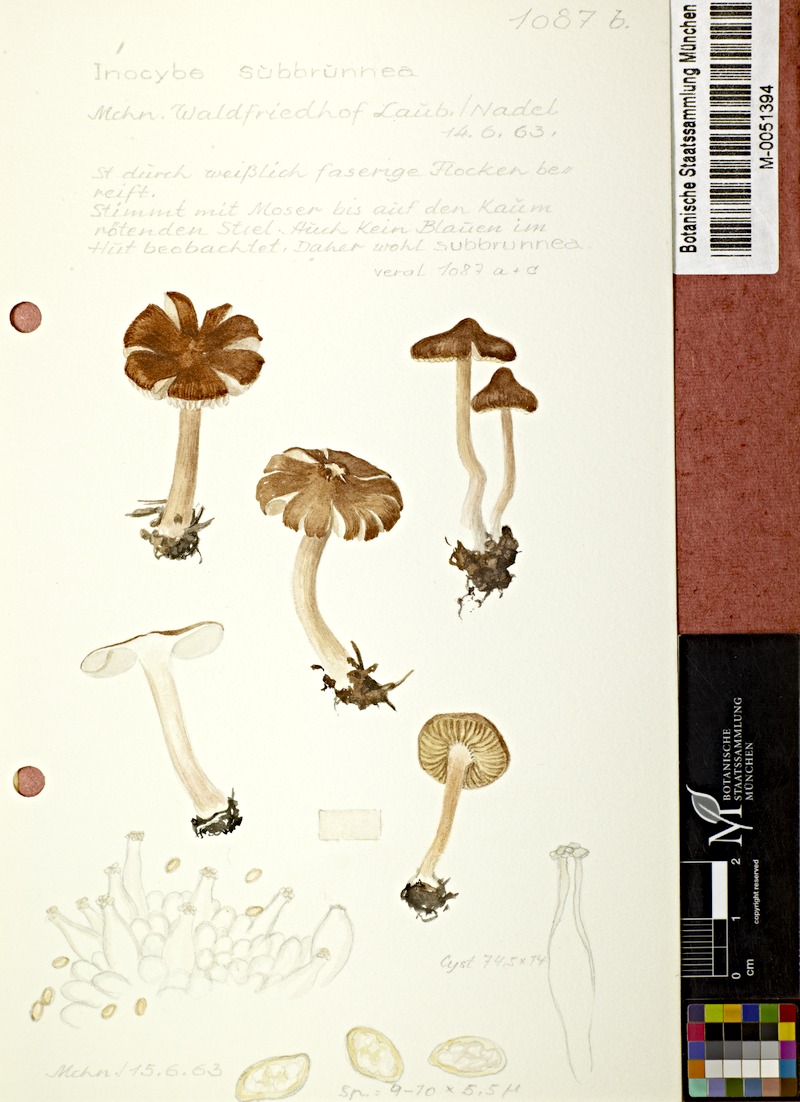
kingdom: Fungi
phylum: Basidiomycota
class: Agaricomycetes
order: Agaricales
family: Inocybaceae
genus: Inocybe
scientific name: Inocybe catalaunica
